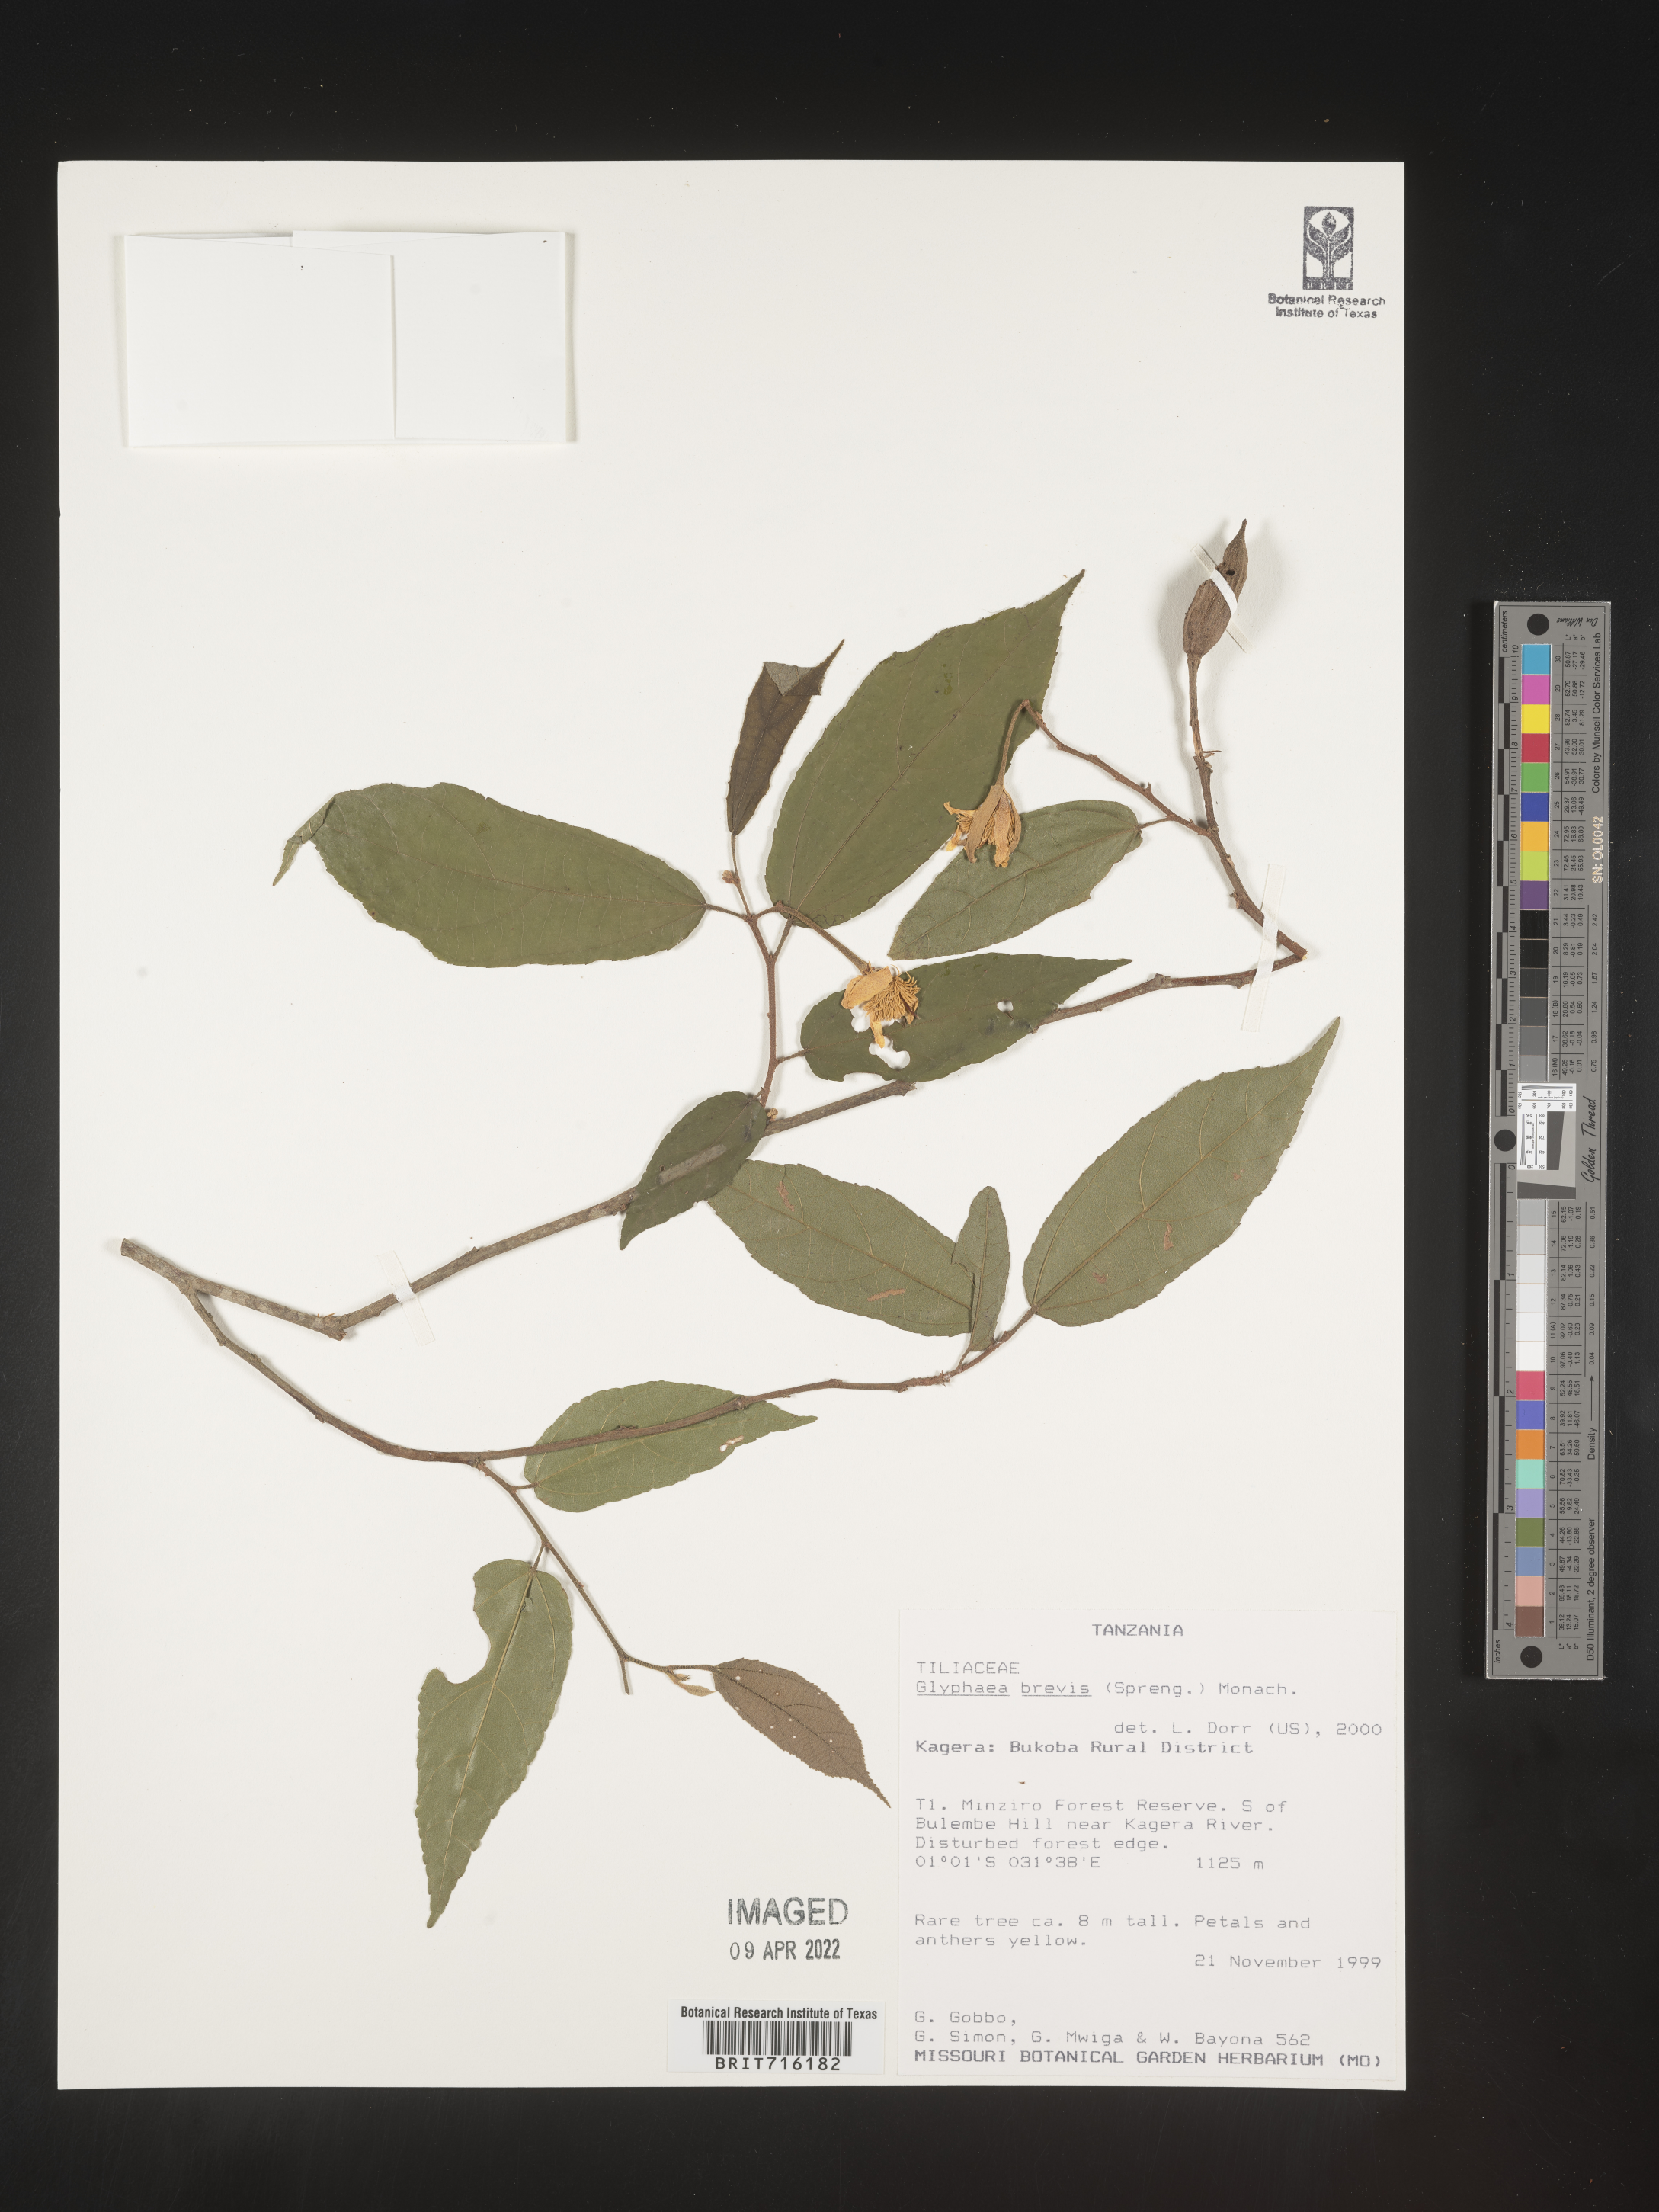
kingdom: Plantae
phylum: Tracheophyta
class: Magnoliopsida
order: Malvales
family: Malvaceae
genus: Glyphaea
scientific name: Glyphaea
